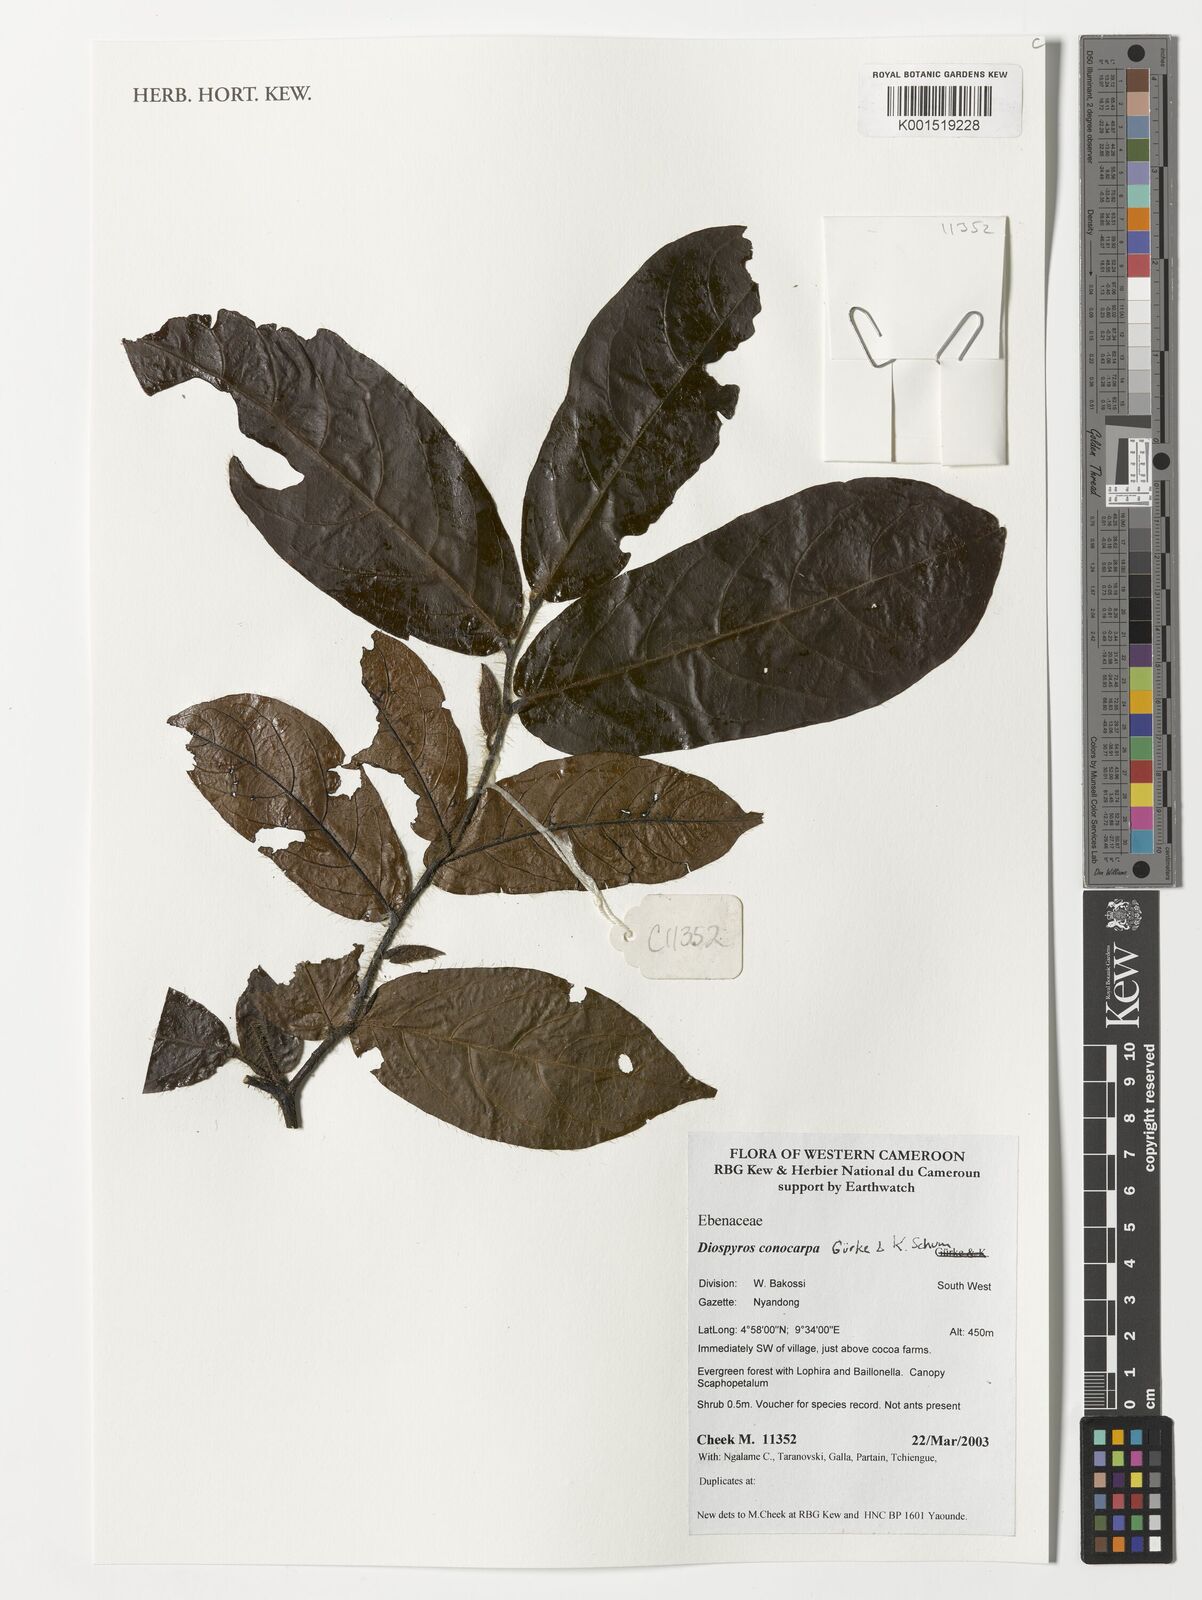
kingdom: Plantae
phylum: Tracheophyta
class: Magnoliopsida
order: Ericales
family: Ebenaceae
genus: Diospyros
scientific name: Diospyros conocarpa
